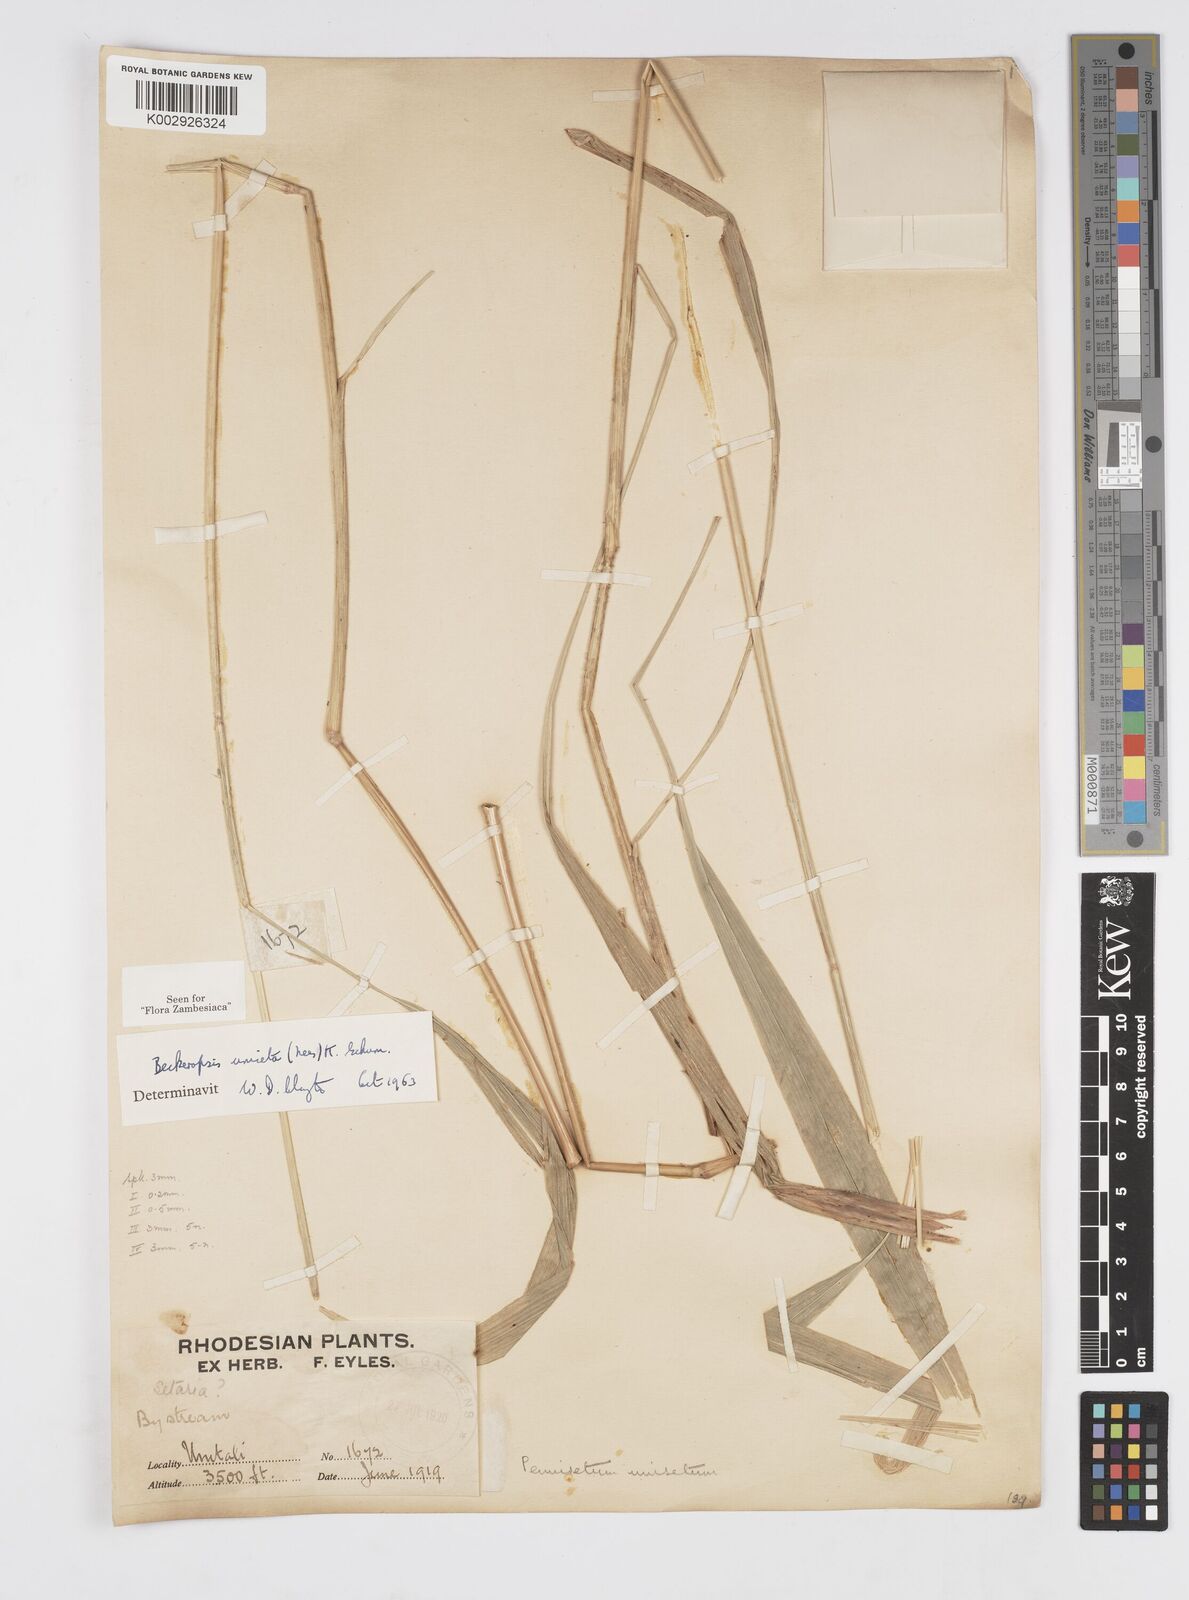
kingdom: Plantae
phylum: Tracheophyta
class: Liliopsida
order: Poales
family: Poaceae
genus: Cenchrus
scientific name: Cenchrus unisetus
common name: Natal grass
